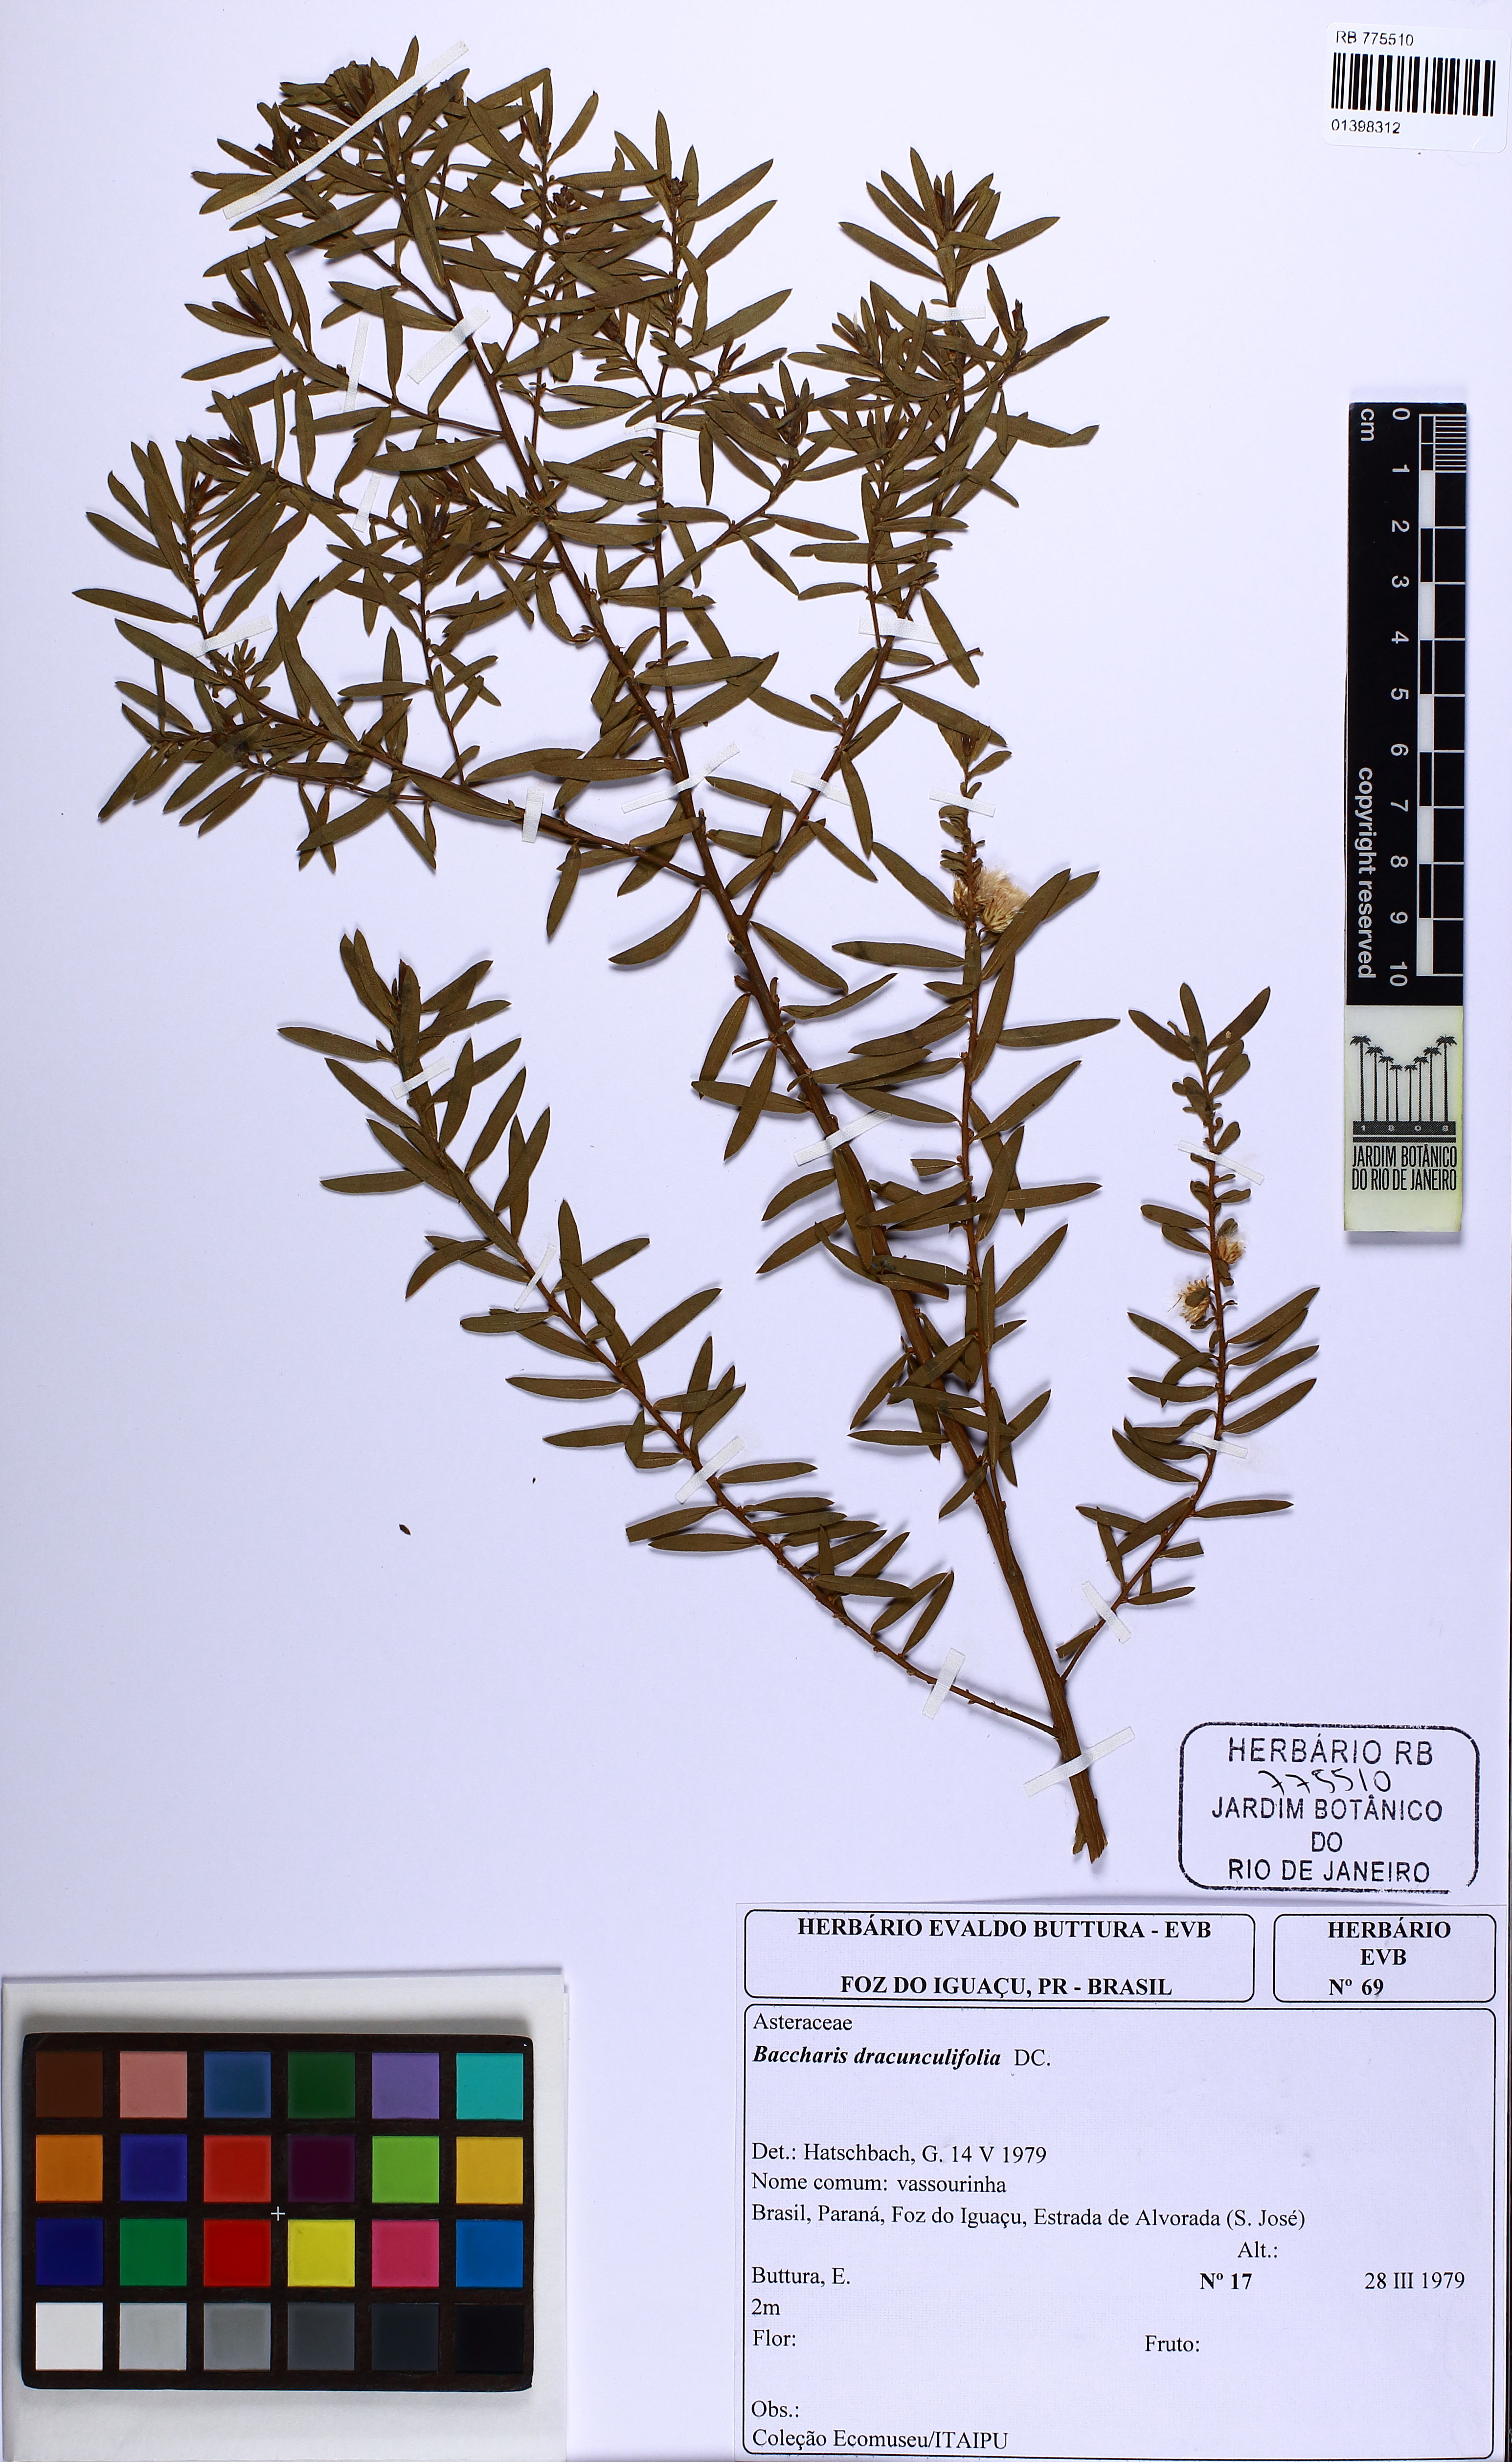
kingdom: Plantae
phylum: Tracheophyta
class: Magnoliopsida
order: Asterales
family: Asteraceae
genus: Baccharis
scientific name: Baccharis dracunculifolia
